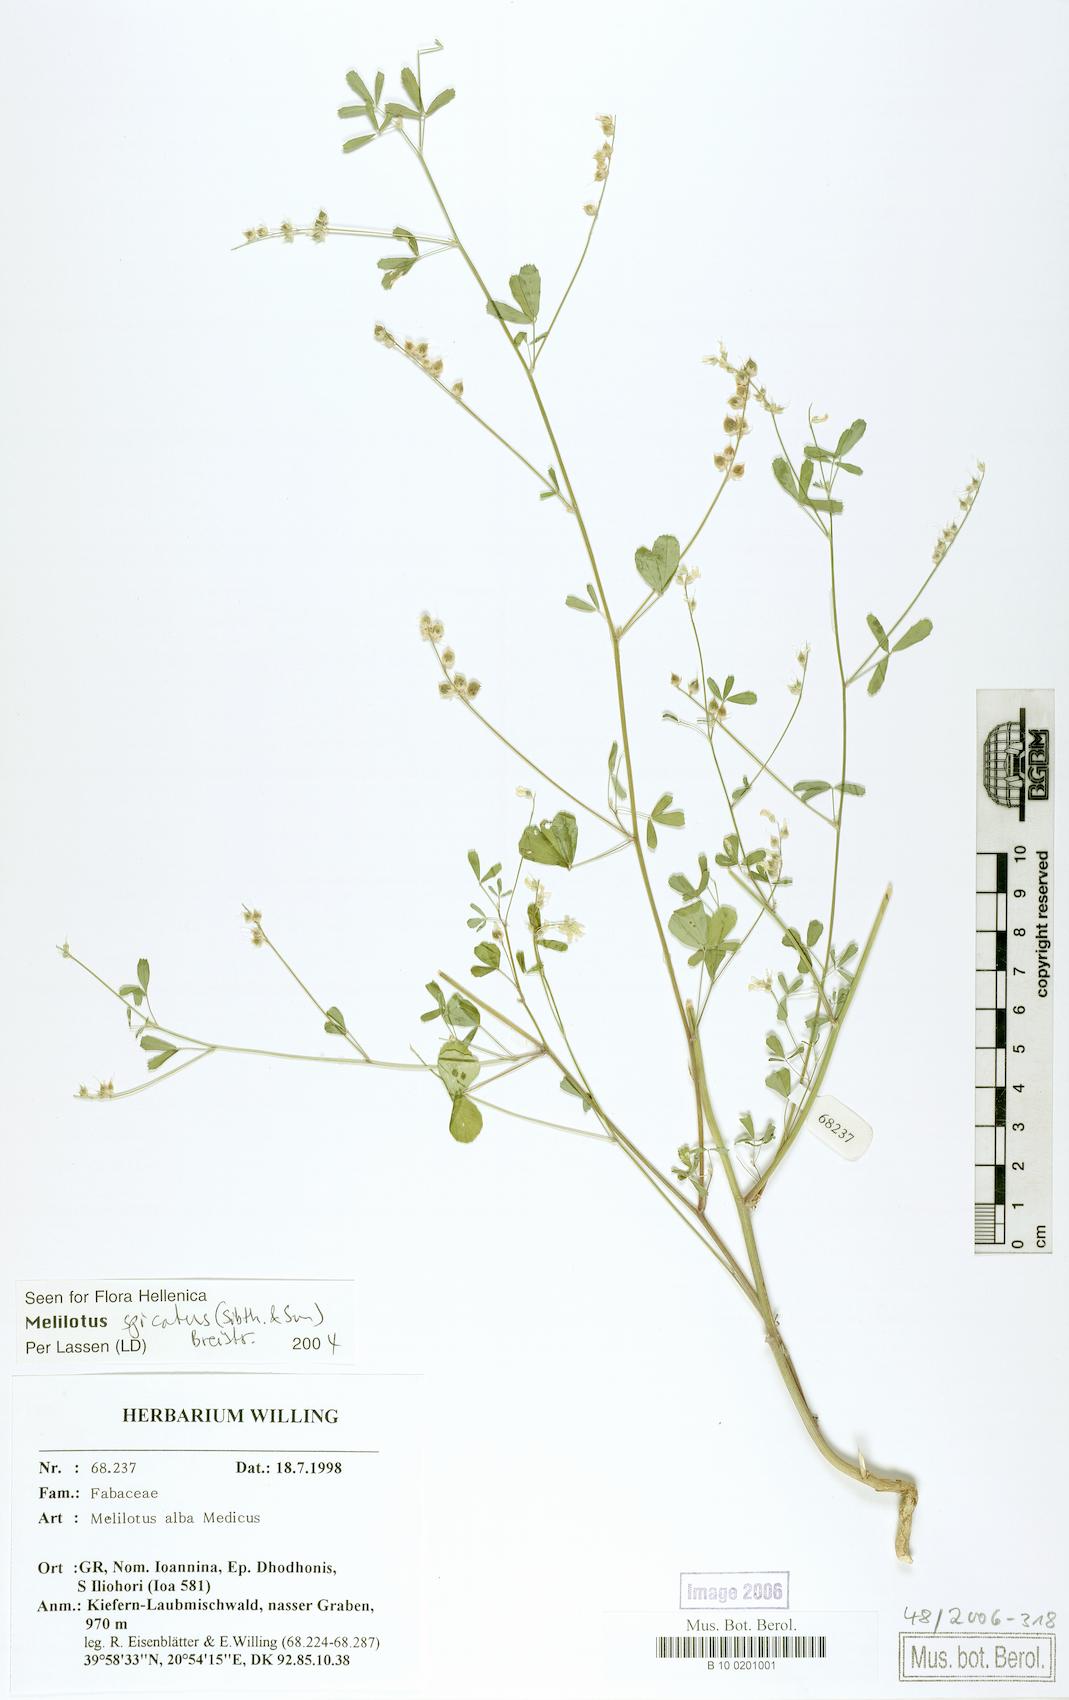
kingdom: Plantae
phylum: Tracheophyta
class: Magnoliopsida
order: Fabales
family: Fabaceae
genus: Melilotus
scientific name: Melilotus albus
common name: White melilot
